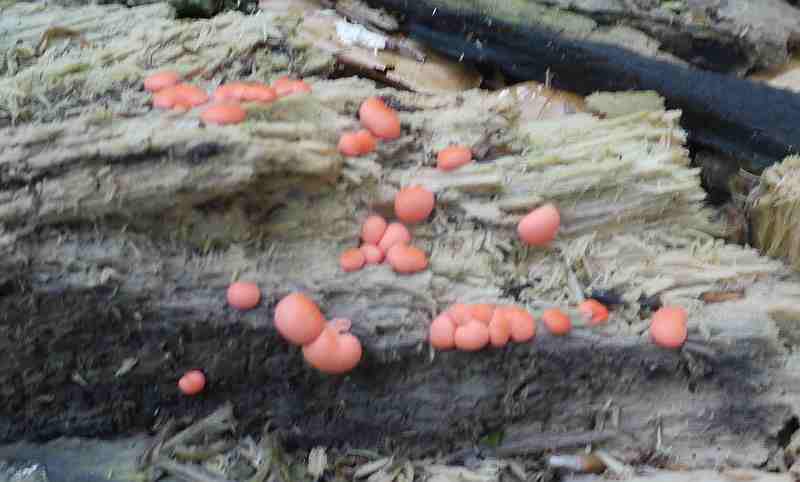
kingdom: Protozoa
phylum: Mycetozoa
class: Myxomycetes
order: Cribrariales
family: Tubiferaceae
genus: Lycogala
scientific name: Lycogala epidendrum
